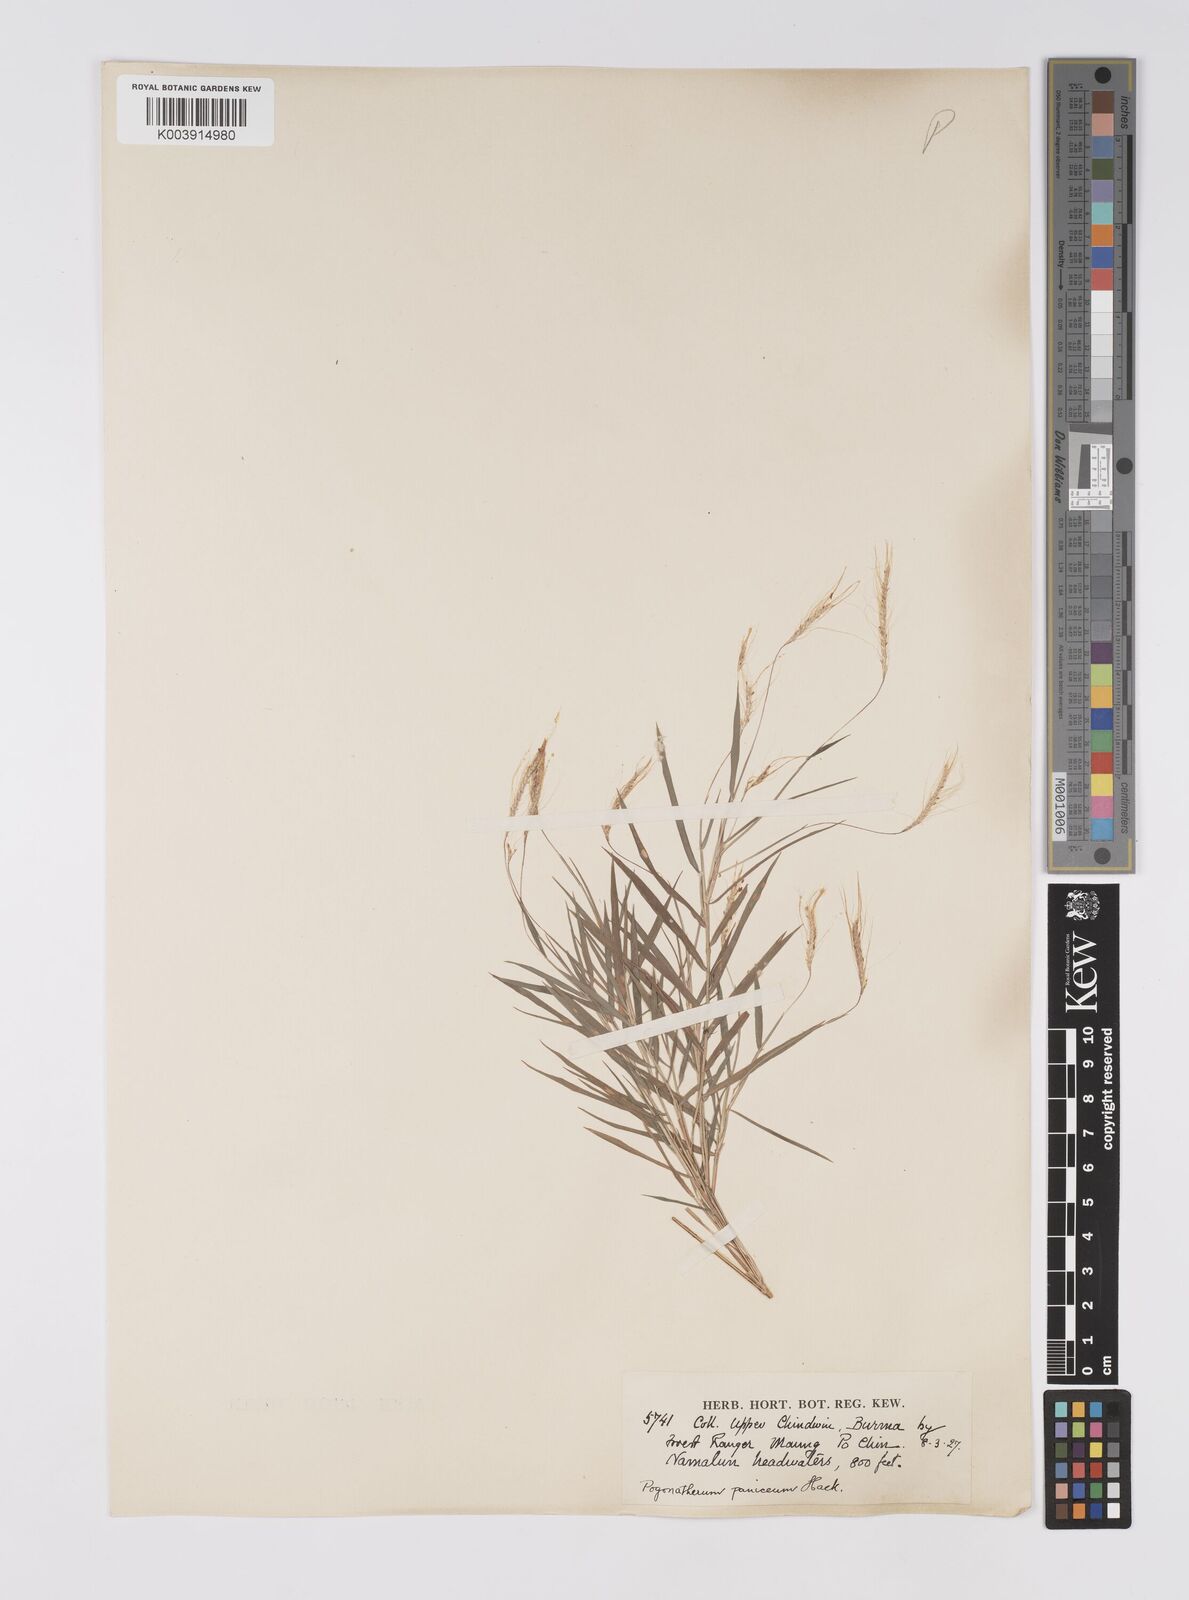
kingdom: Plantae
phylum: Tracheophyta
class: Liliopsida
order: Poales
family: Poaceae
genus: Pogonatherum
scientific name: Pogonatherum paniceum
